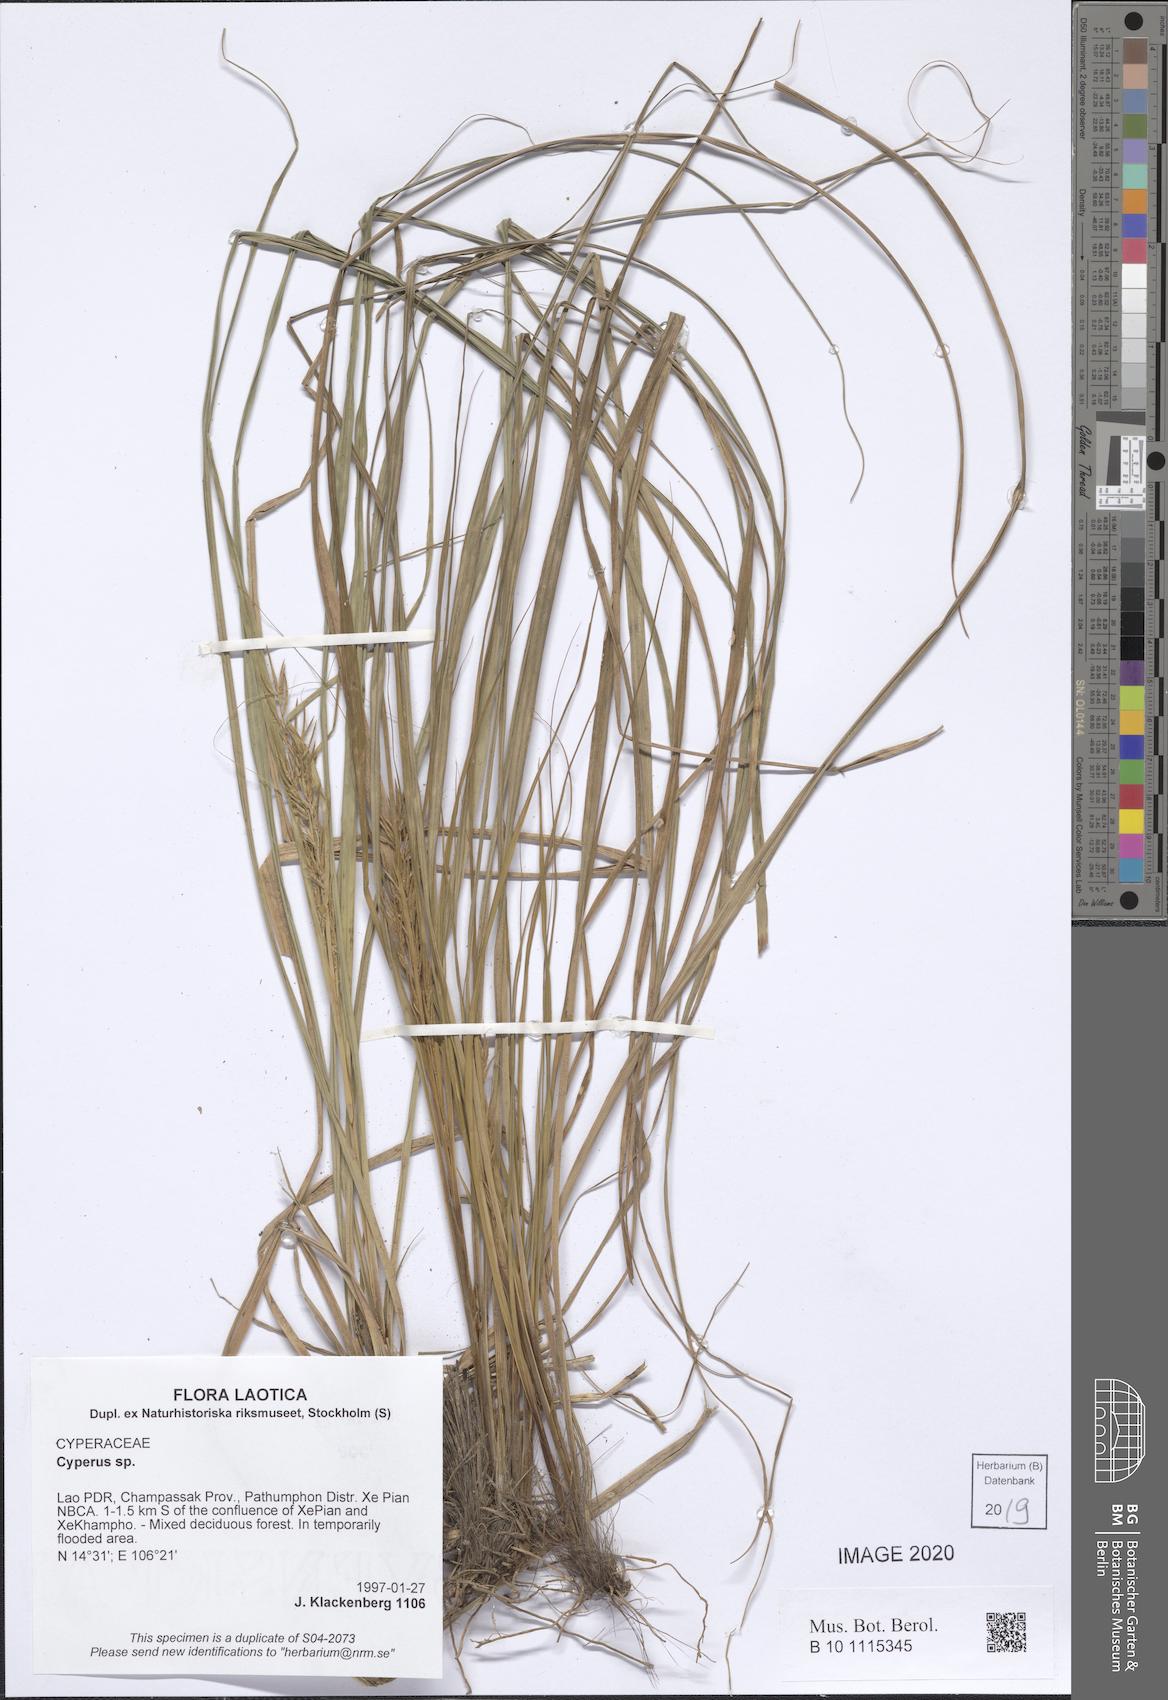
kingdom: Plantae
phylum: Tracheophyta
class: Liliopsida
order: Poales
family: Cyperaceae
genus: Cyperus
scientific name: Cyperus
